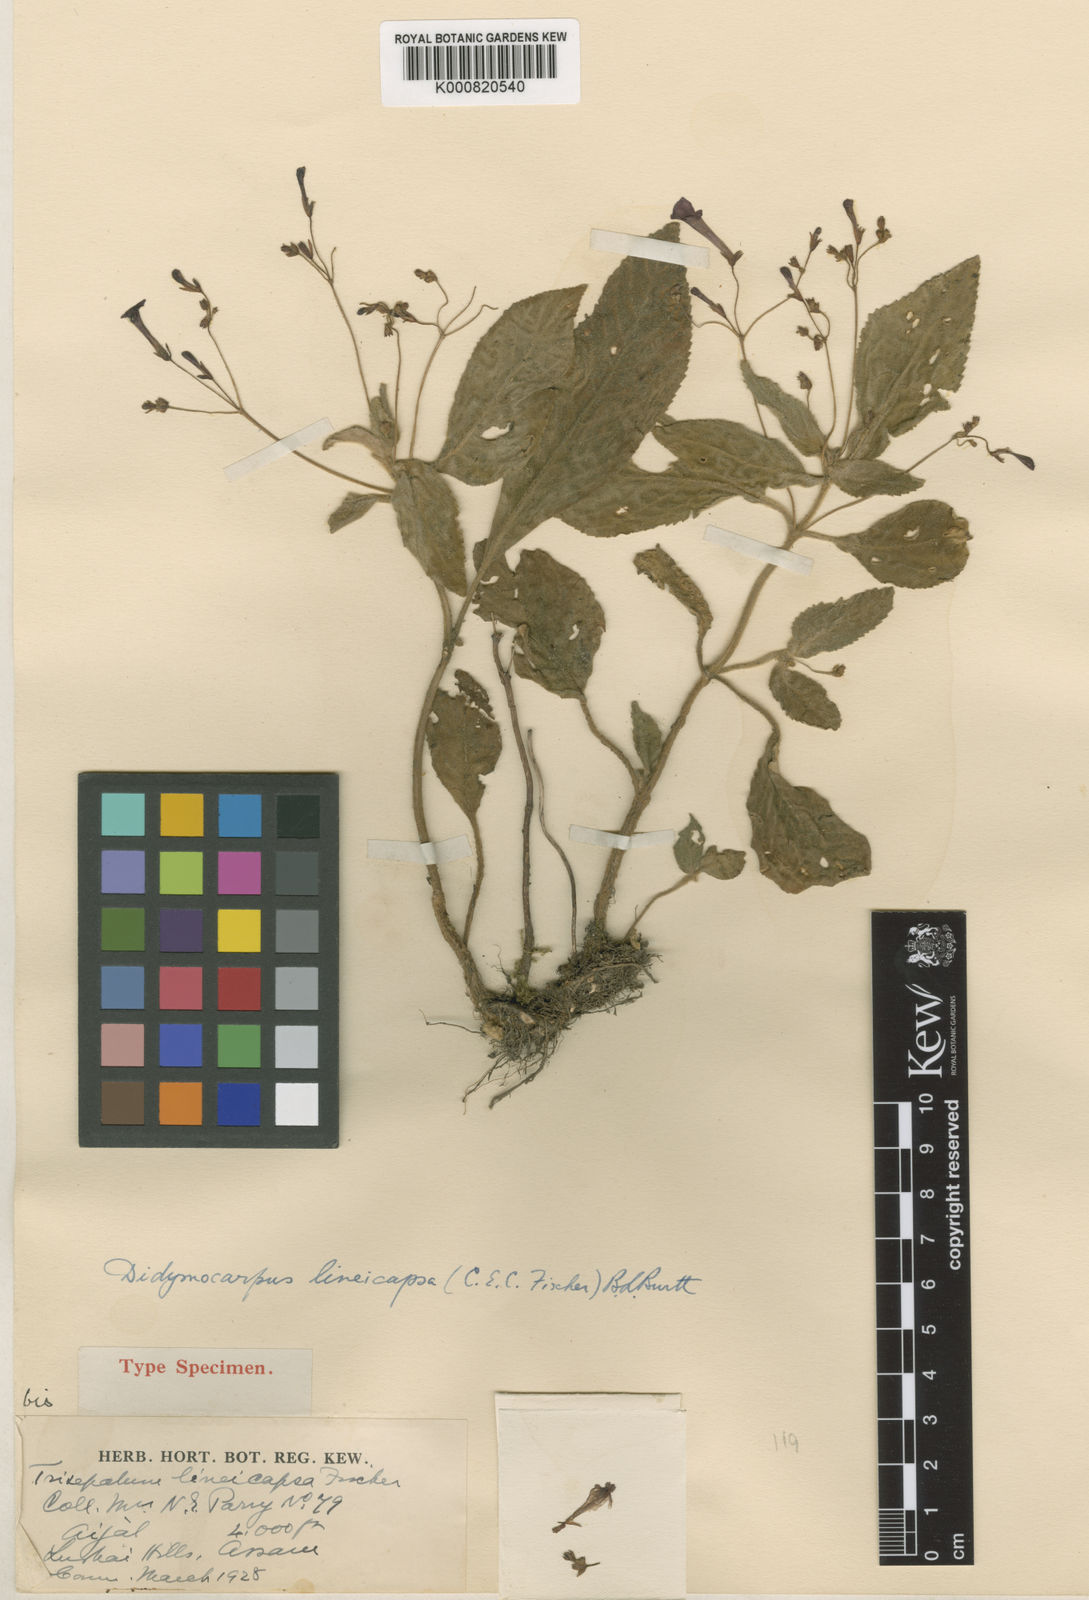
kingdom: Plantae
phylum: Tracheophyta
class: Magnoliopsida
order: Lamiales
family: Gesneriaceae
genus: Didymocarpus
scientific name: Didymocarpus lineicapsa
